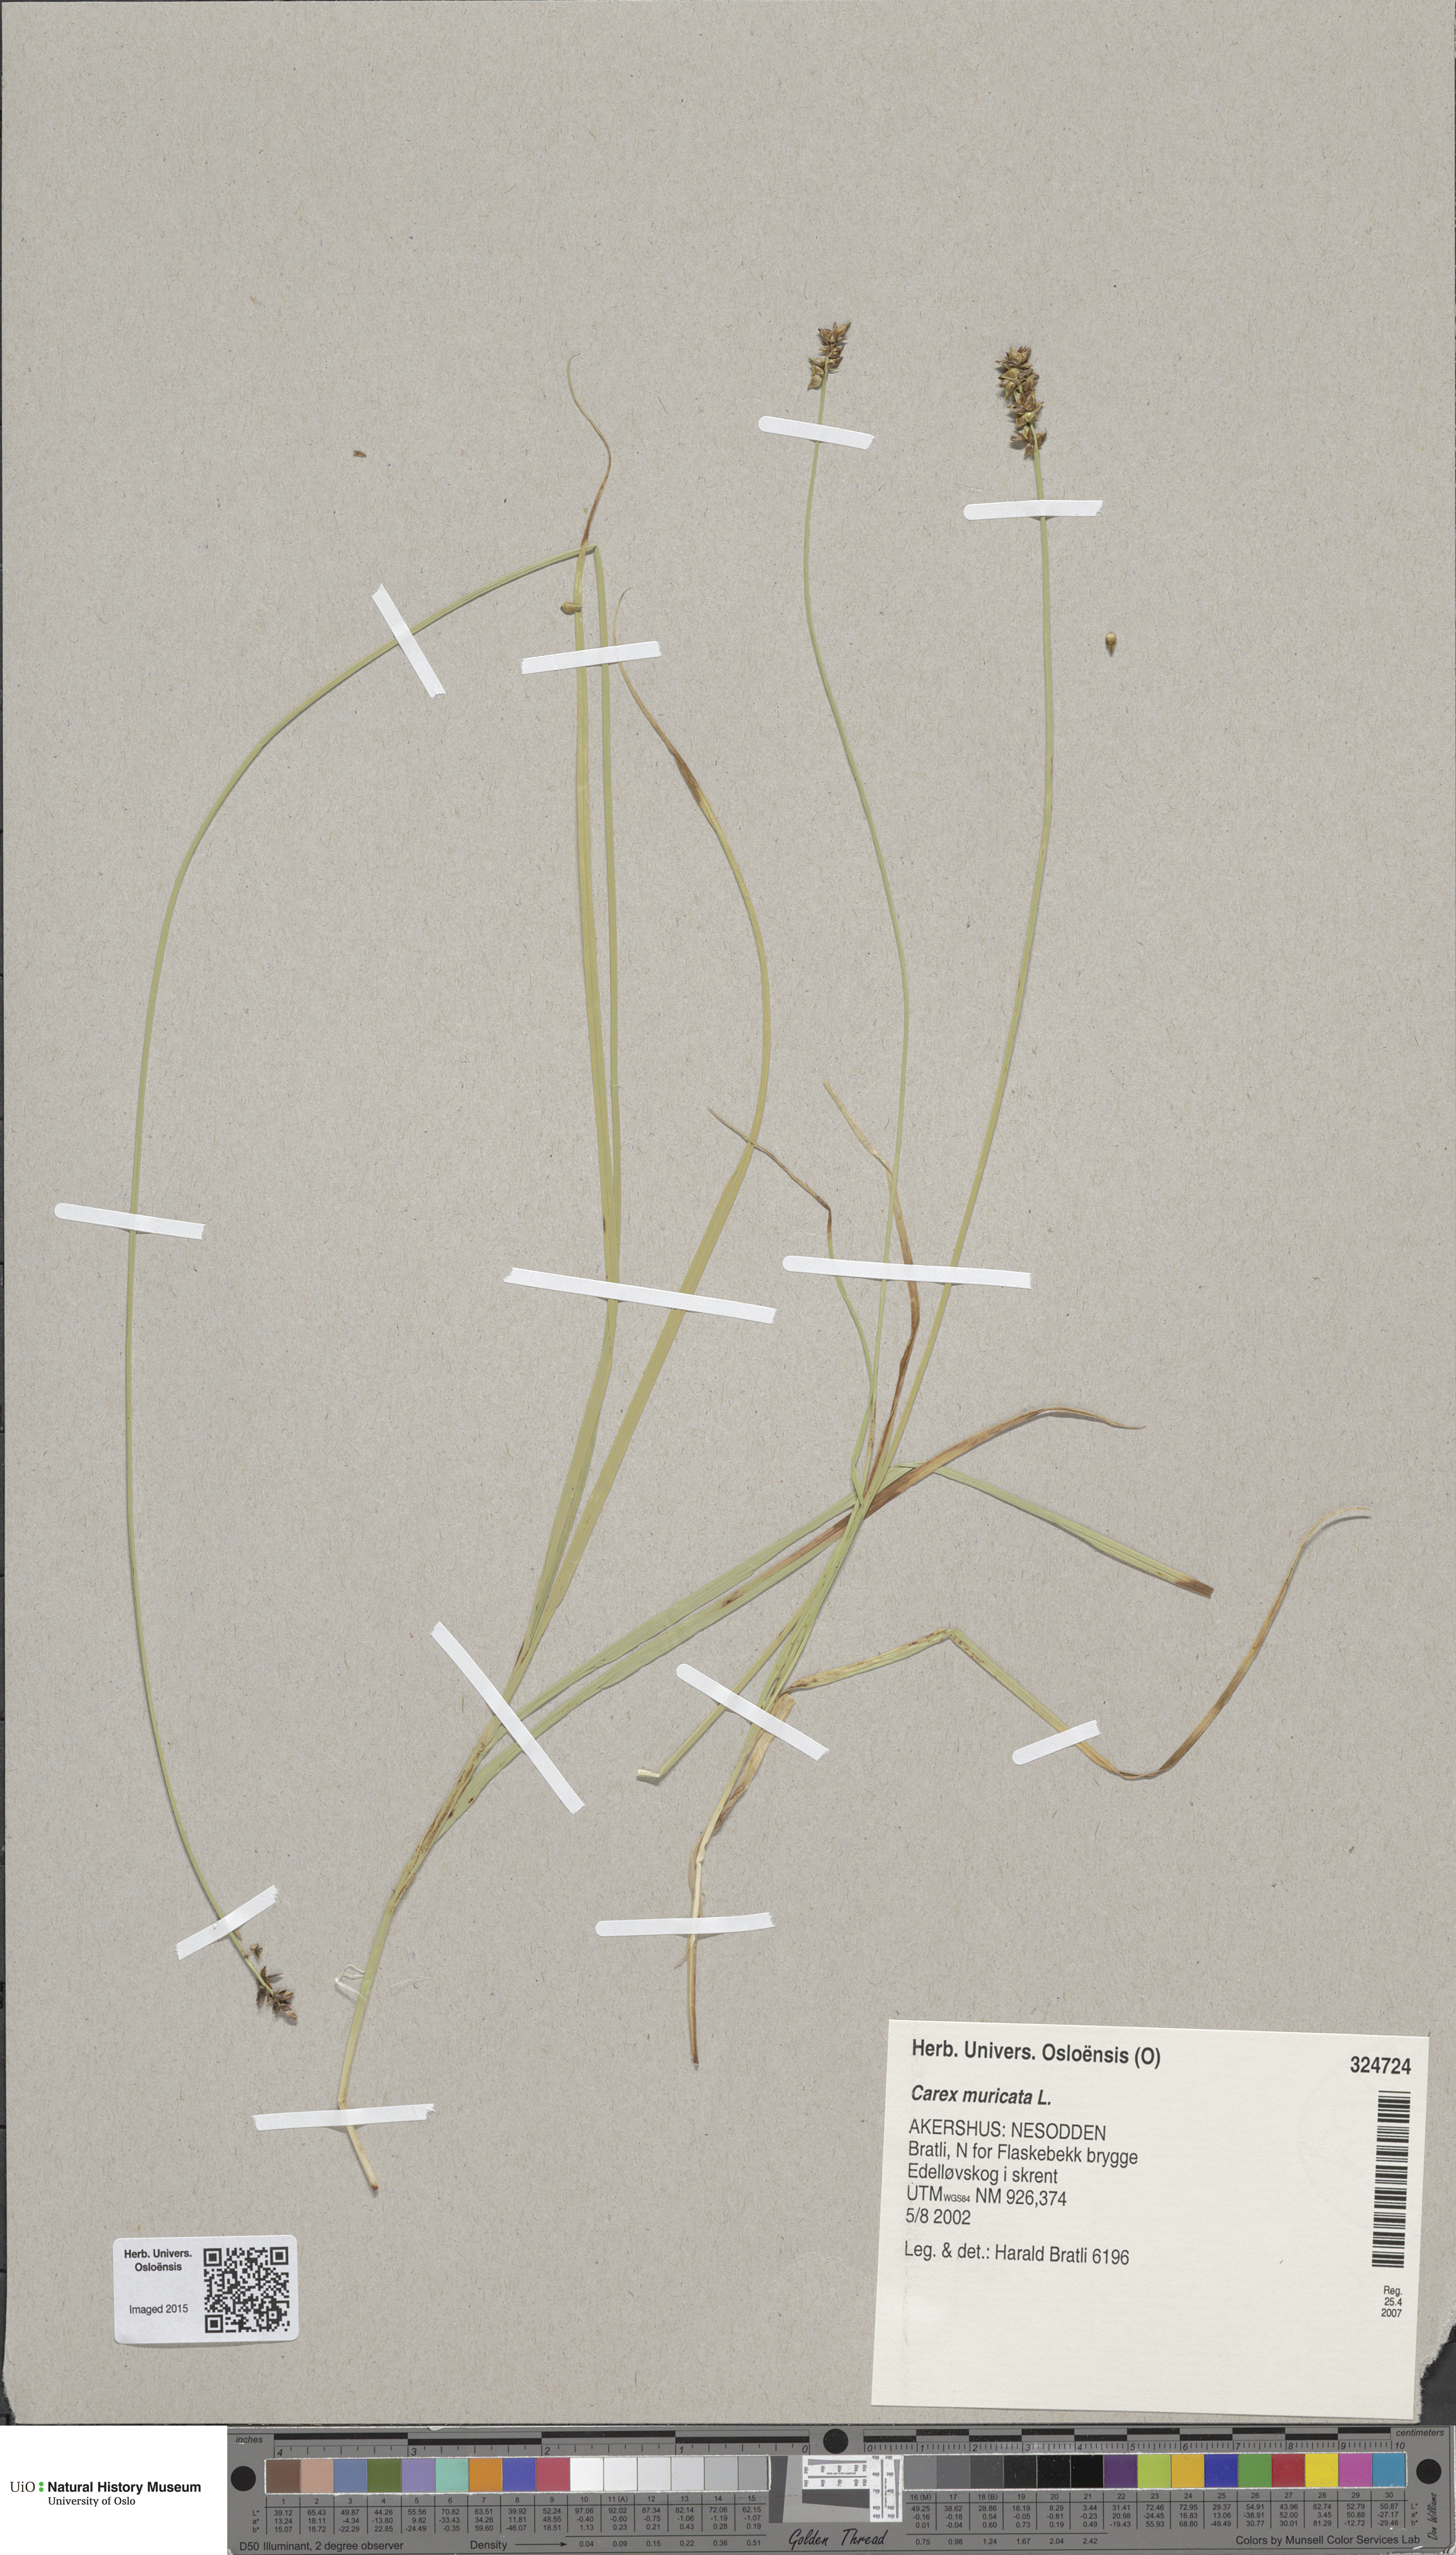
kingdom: Plantae
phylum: Tracheophyta
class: Liliopsida
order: Poales
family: Cyperaceae
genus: Carex
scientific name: Carex muricata
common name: Rough sedge
